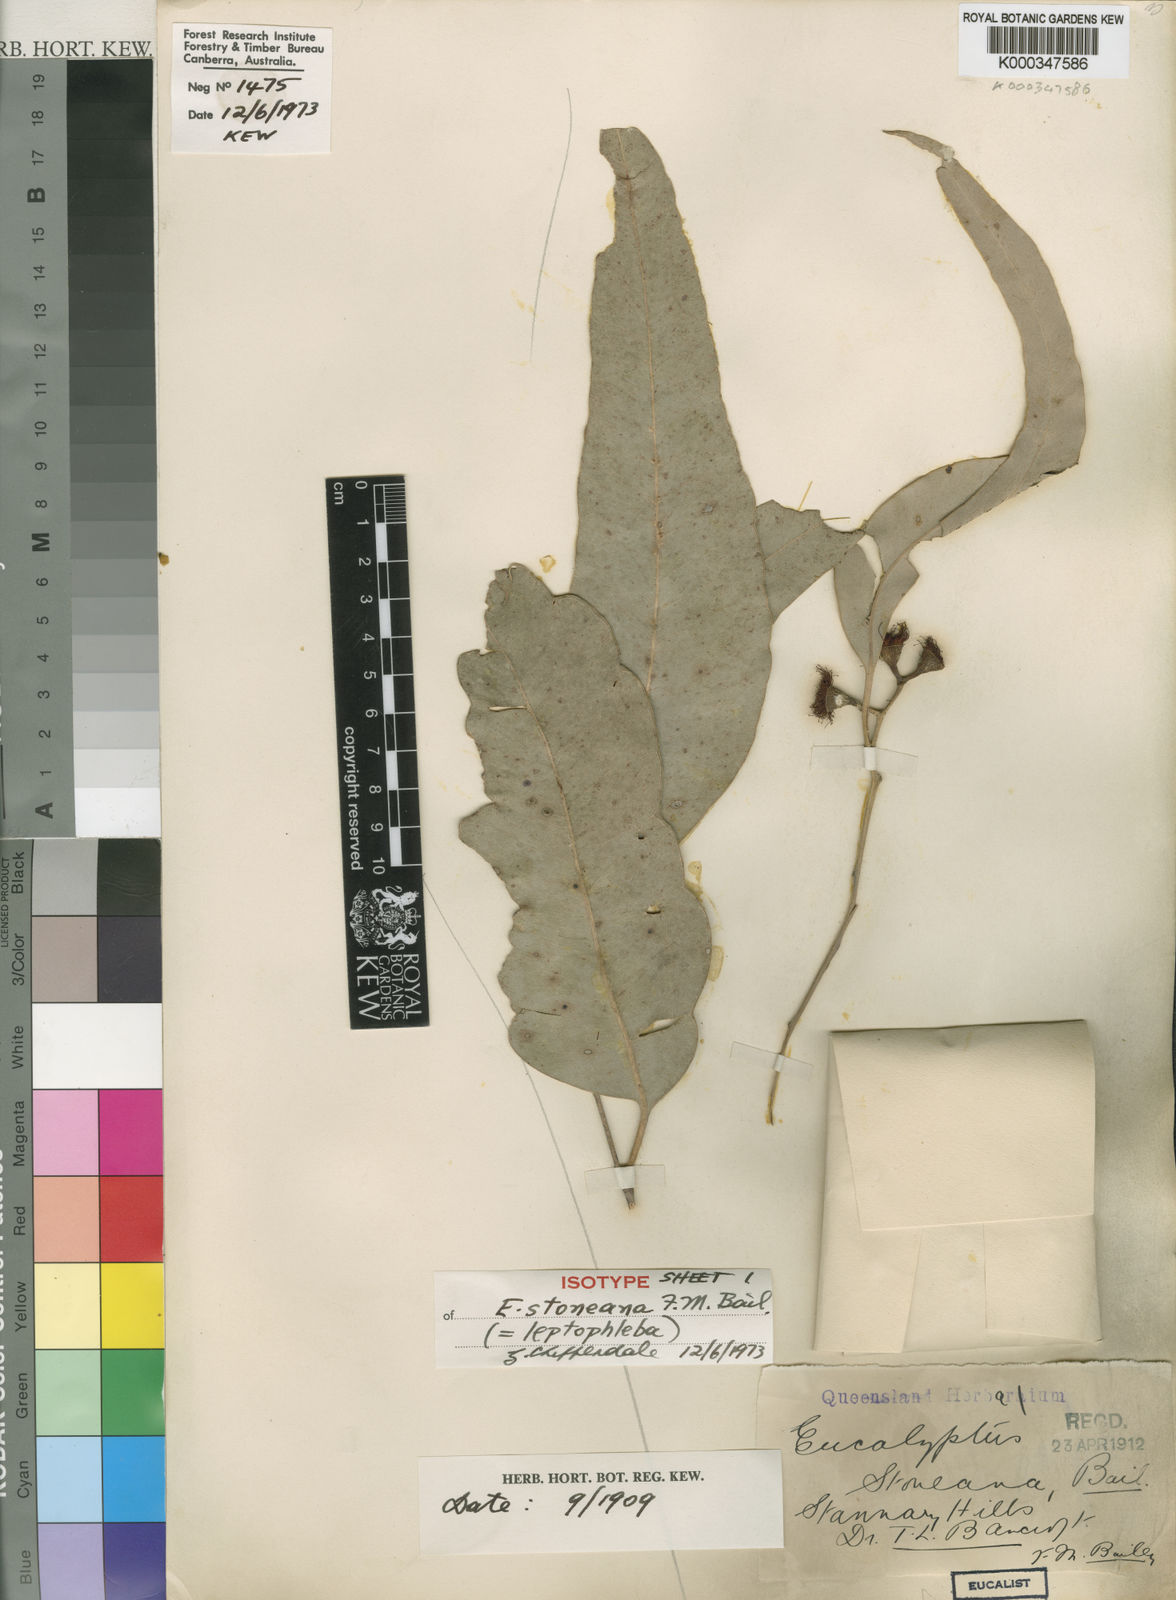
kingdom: Plantae
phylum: Tracheophyta
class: Magnoliopsida
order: Myrtales
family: Myrtaceae
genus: Eucalyptus
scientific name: Eucalyptus leptophleba
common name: Molloy-box
